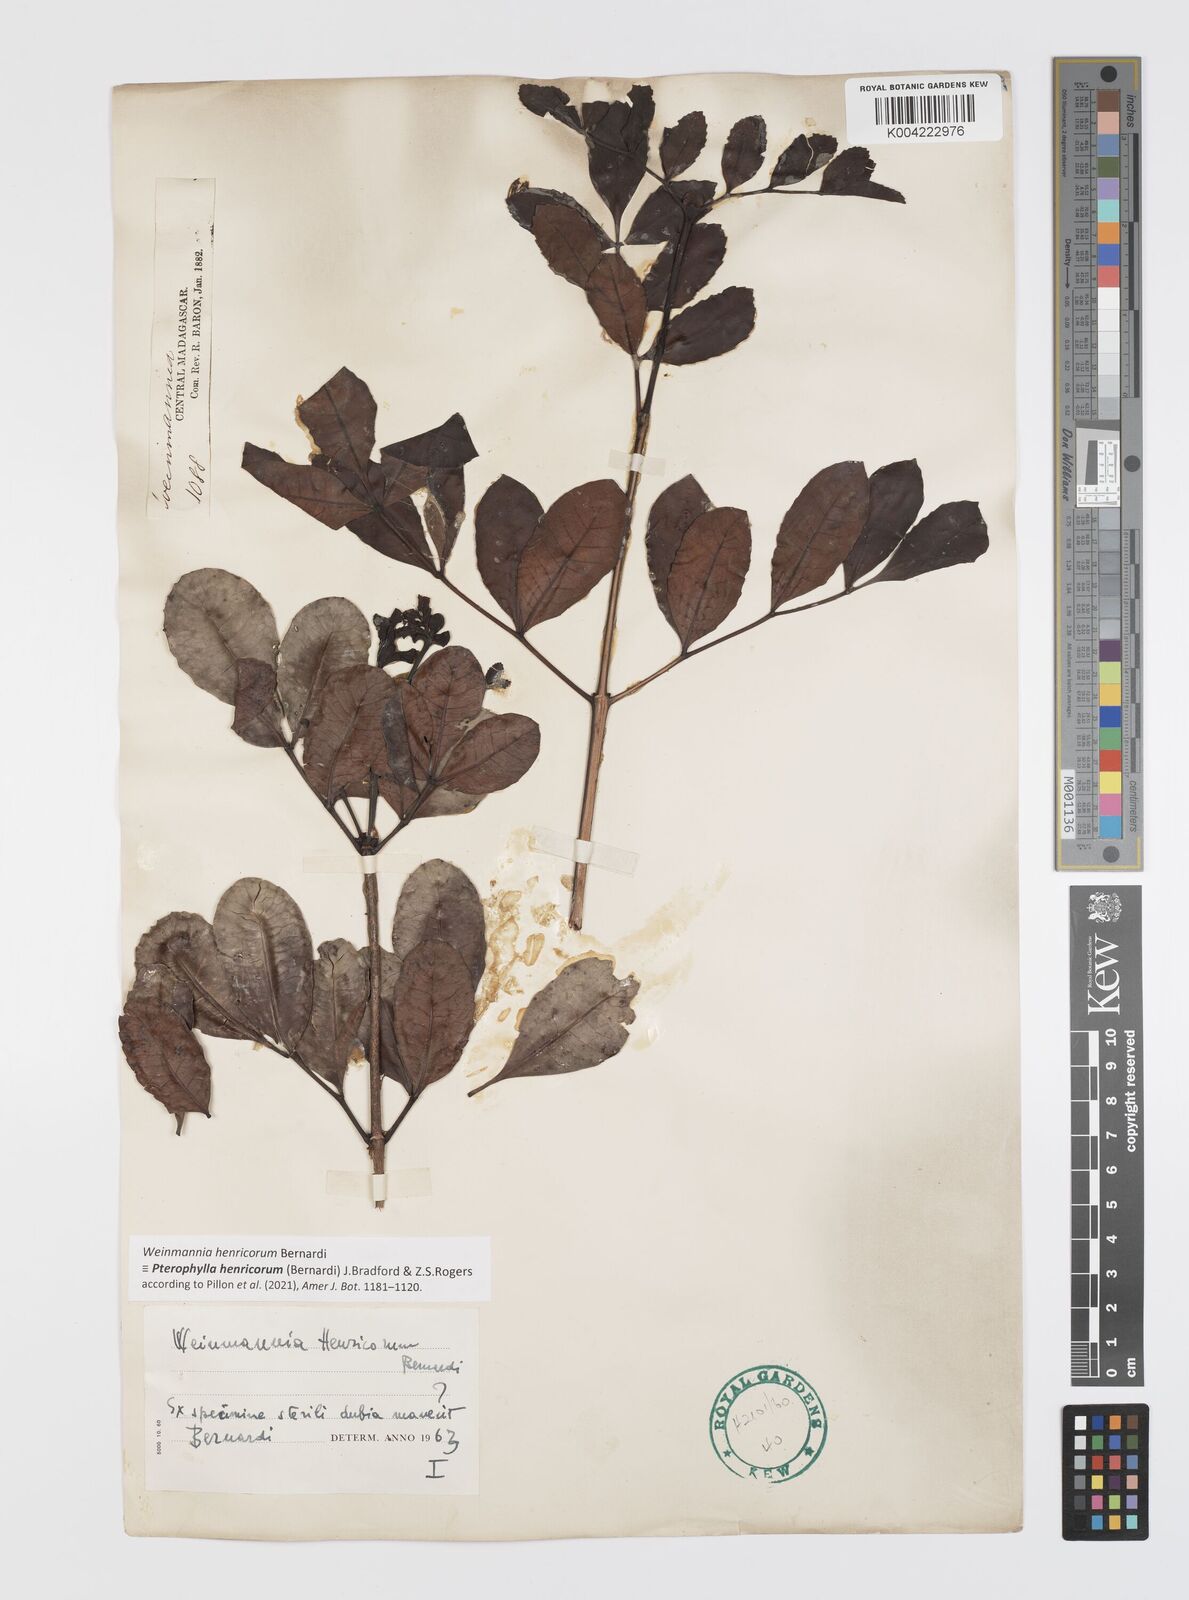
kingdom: Plantae
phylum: Tracheophyta
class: Magnoliopsida
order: Oxalidales
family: Cunoniaceae
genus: Weinmannia
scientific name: Weinmannia
